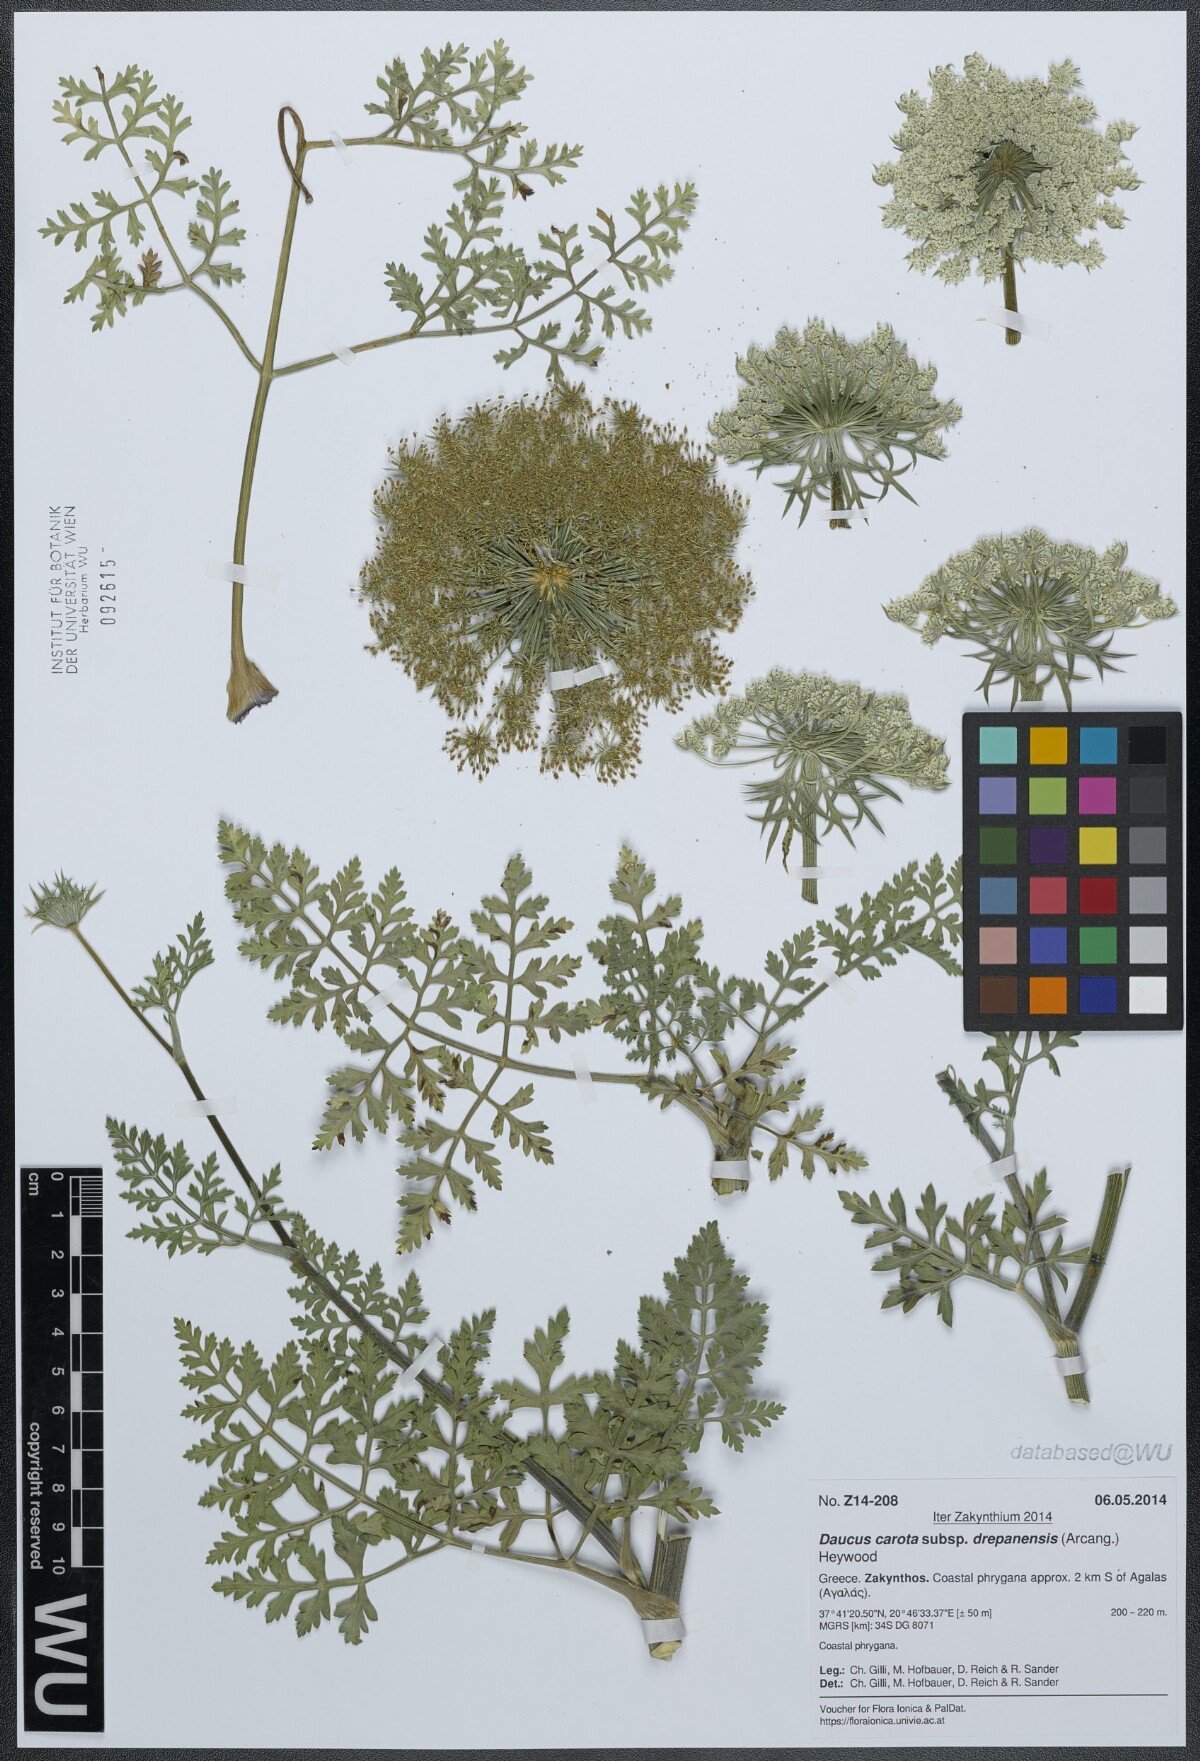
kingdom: Plantae
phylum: Tracheophyta
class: Magnoliopsida
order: Apiales
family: Apiaceae
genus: Daucus
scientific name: Daucus carota
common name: Wild carrot
